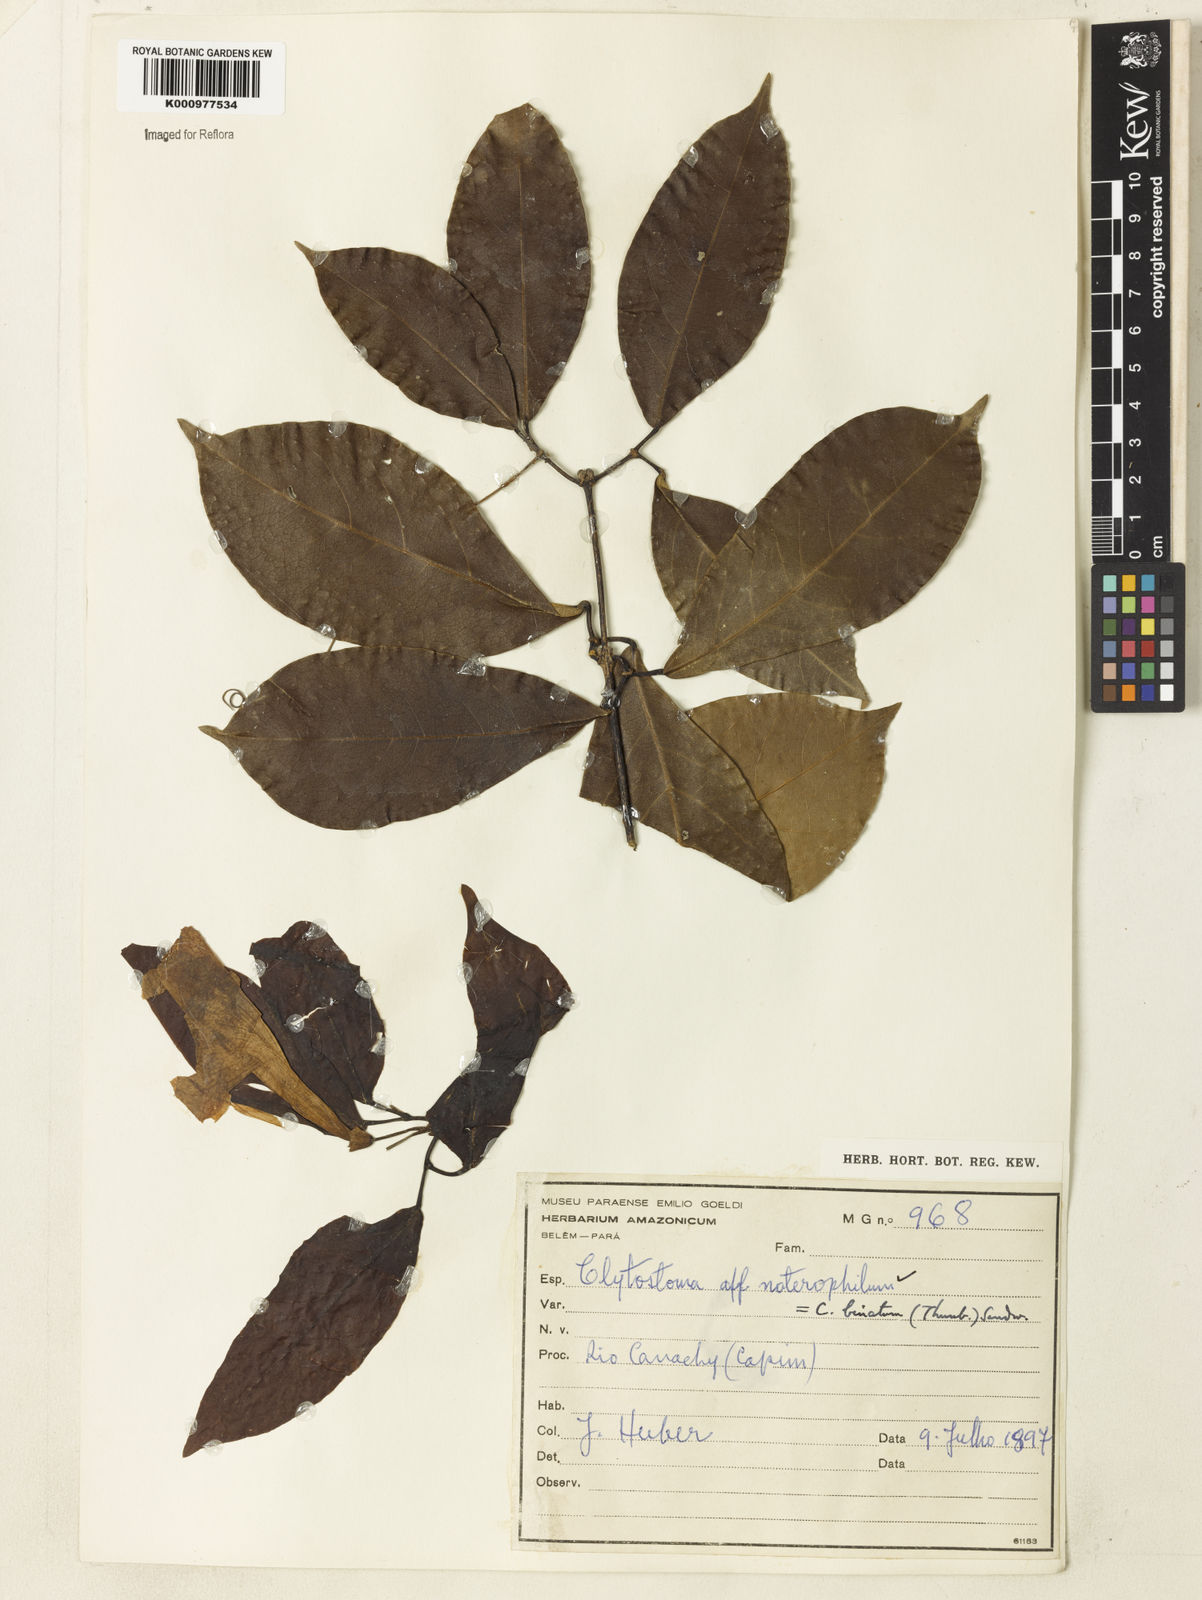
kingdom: Plantae
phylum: Tracheophyta
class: Magnoliopsida
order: Lamiales
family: Bignoniaceae
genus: Bignonia
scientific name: Bignonia binata
